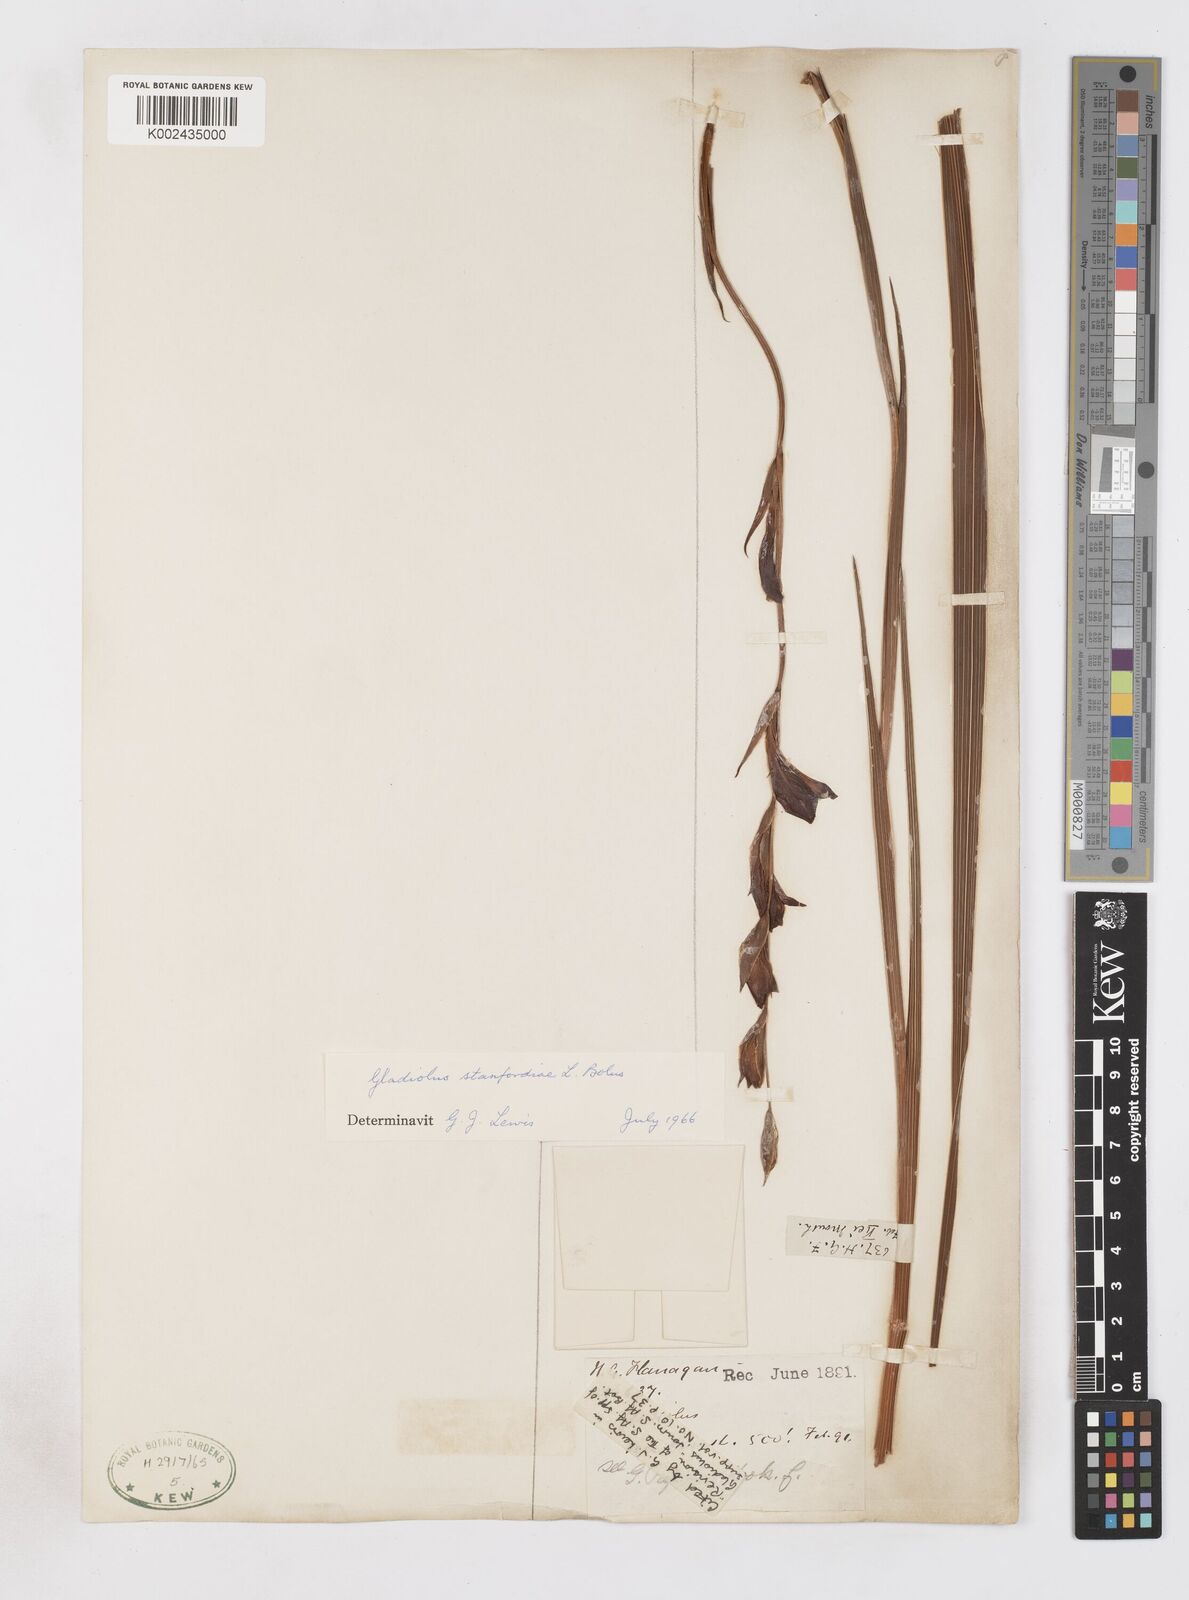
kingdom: Plantae
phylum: Tracheophyta
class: Liliopsida
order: Asparagales
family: Iridaceae
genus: Gladiolus
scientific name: Gladiolus ochroleucus
